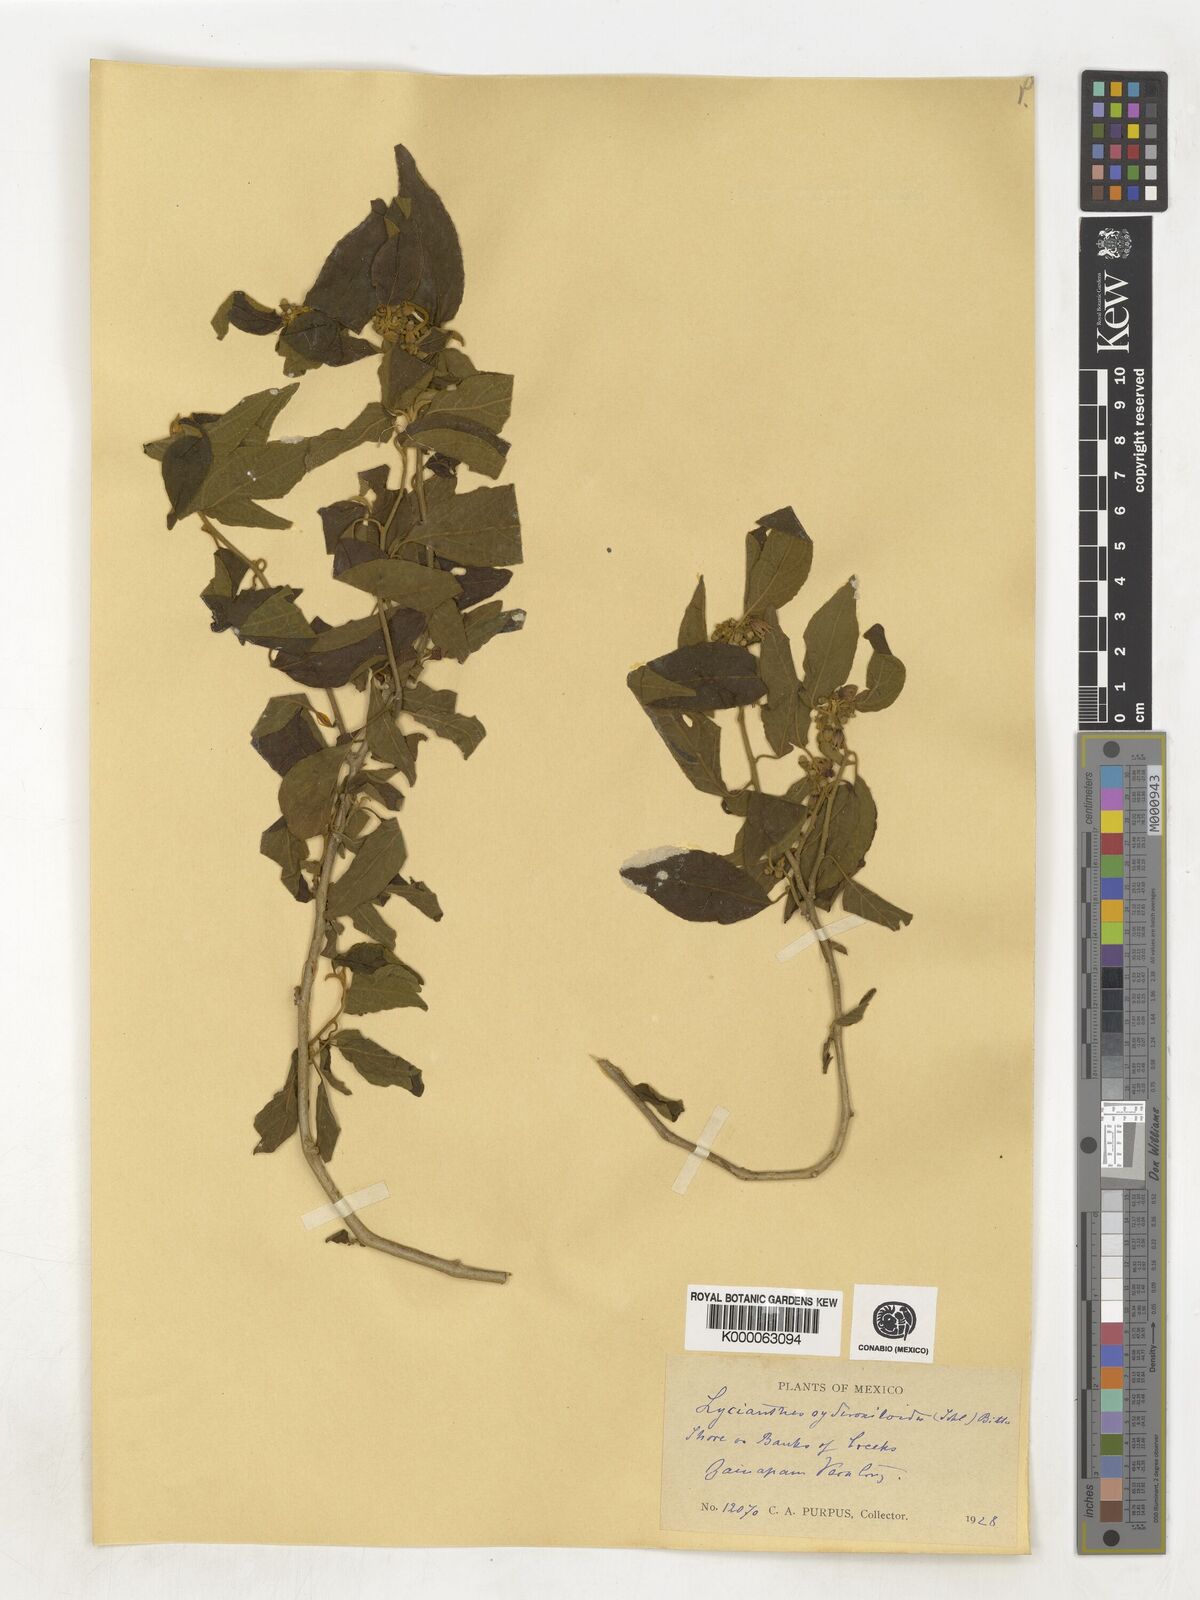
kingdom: Plantae
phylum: Tracheophyta
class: Magnoliopsida
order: Solanales
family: Solanaceae
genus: Lycianthes
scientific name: Lycianthes sideroxyloides
